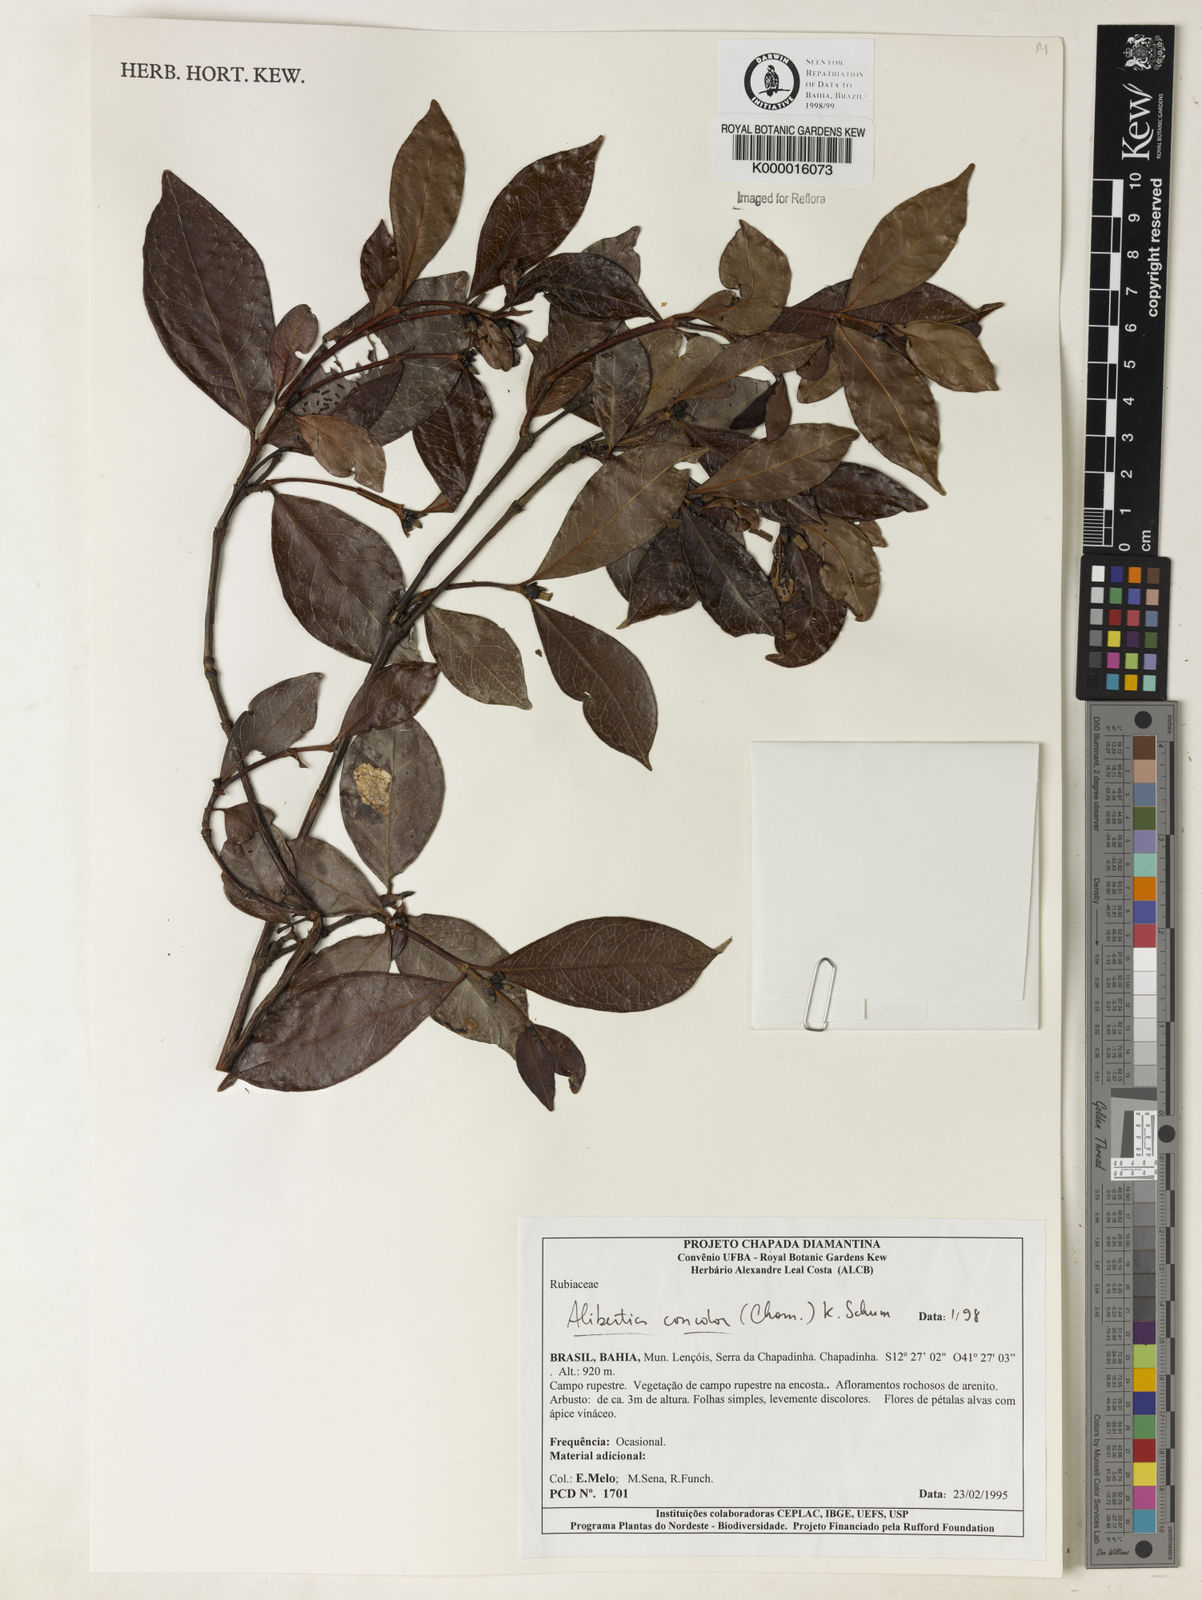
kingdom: Plantae
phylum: Tracheophyta
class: Magnoliopsida
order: Gentianales
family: Rubiaceae
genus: Cordiera
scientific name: Cordiera concolor
